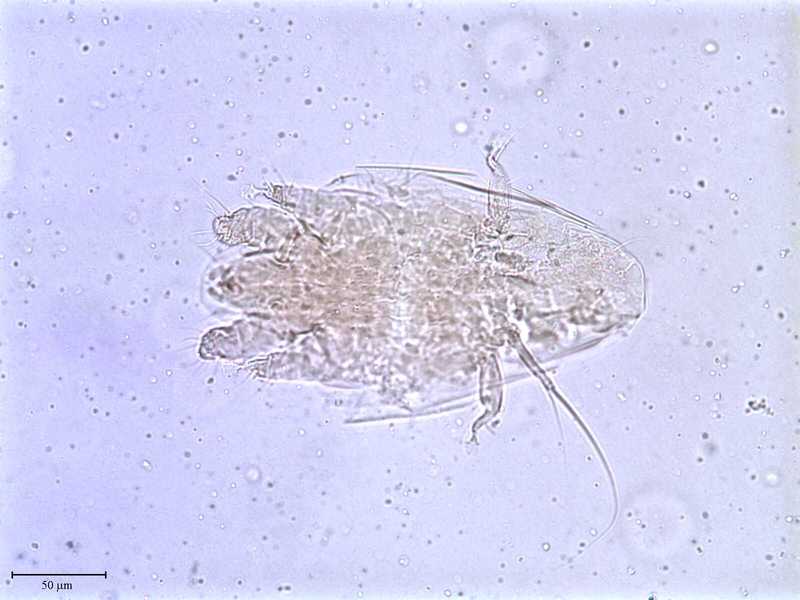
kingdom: Animalia
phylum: Arthropoda
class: Arachnida
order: Trombidiformes
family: Tarsonemidae
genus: Pseudotarsonemoides
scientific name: Pseudotarsonemoides eccoptogasteris
